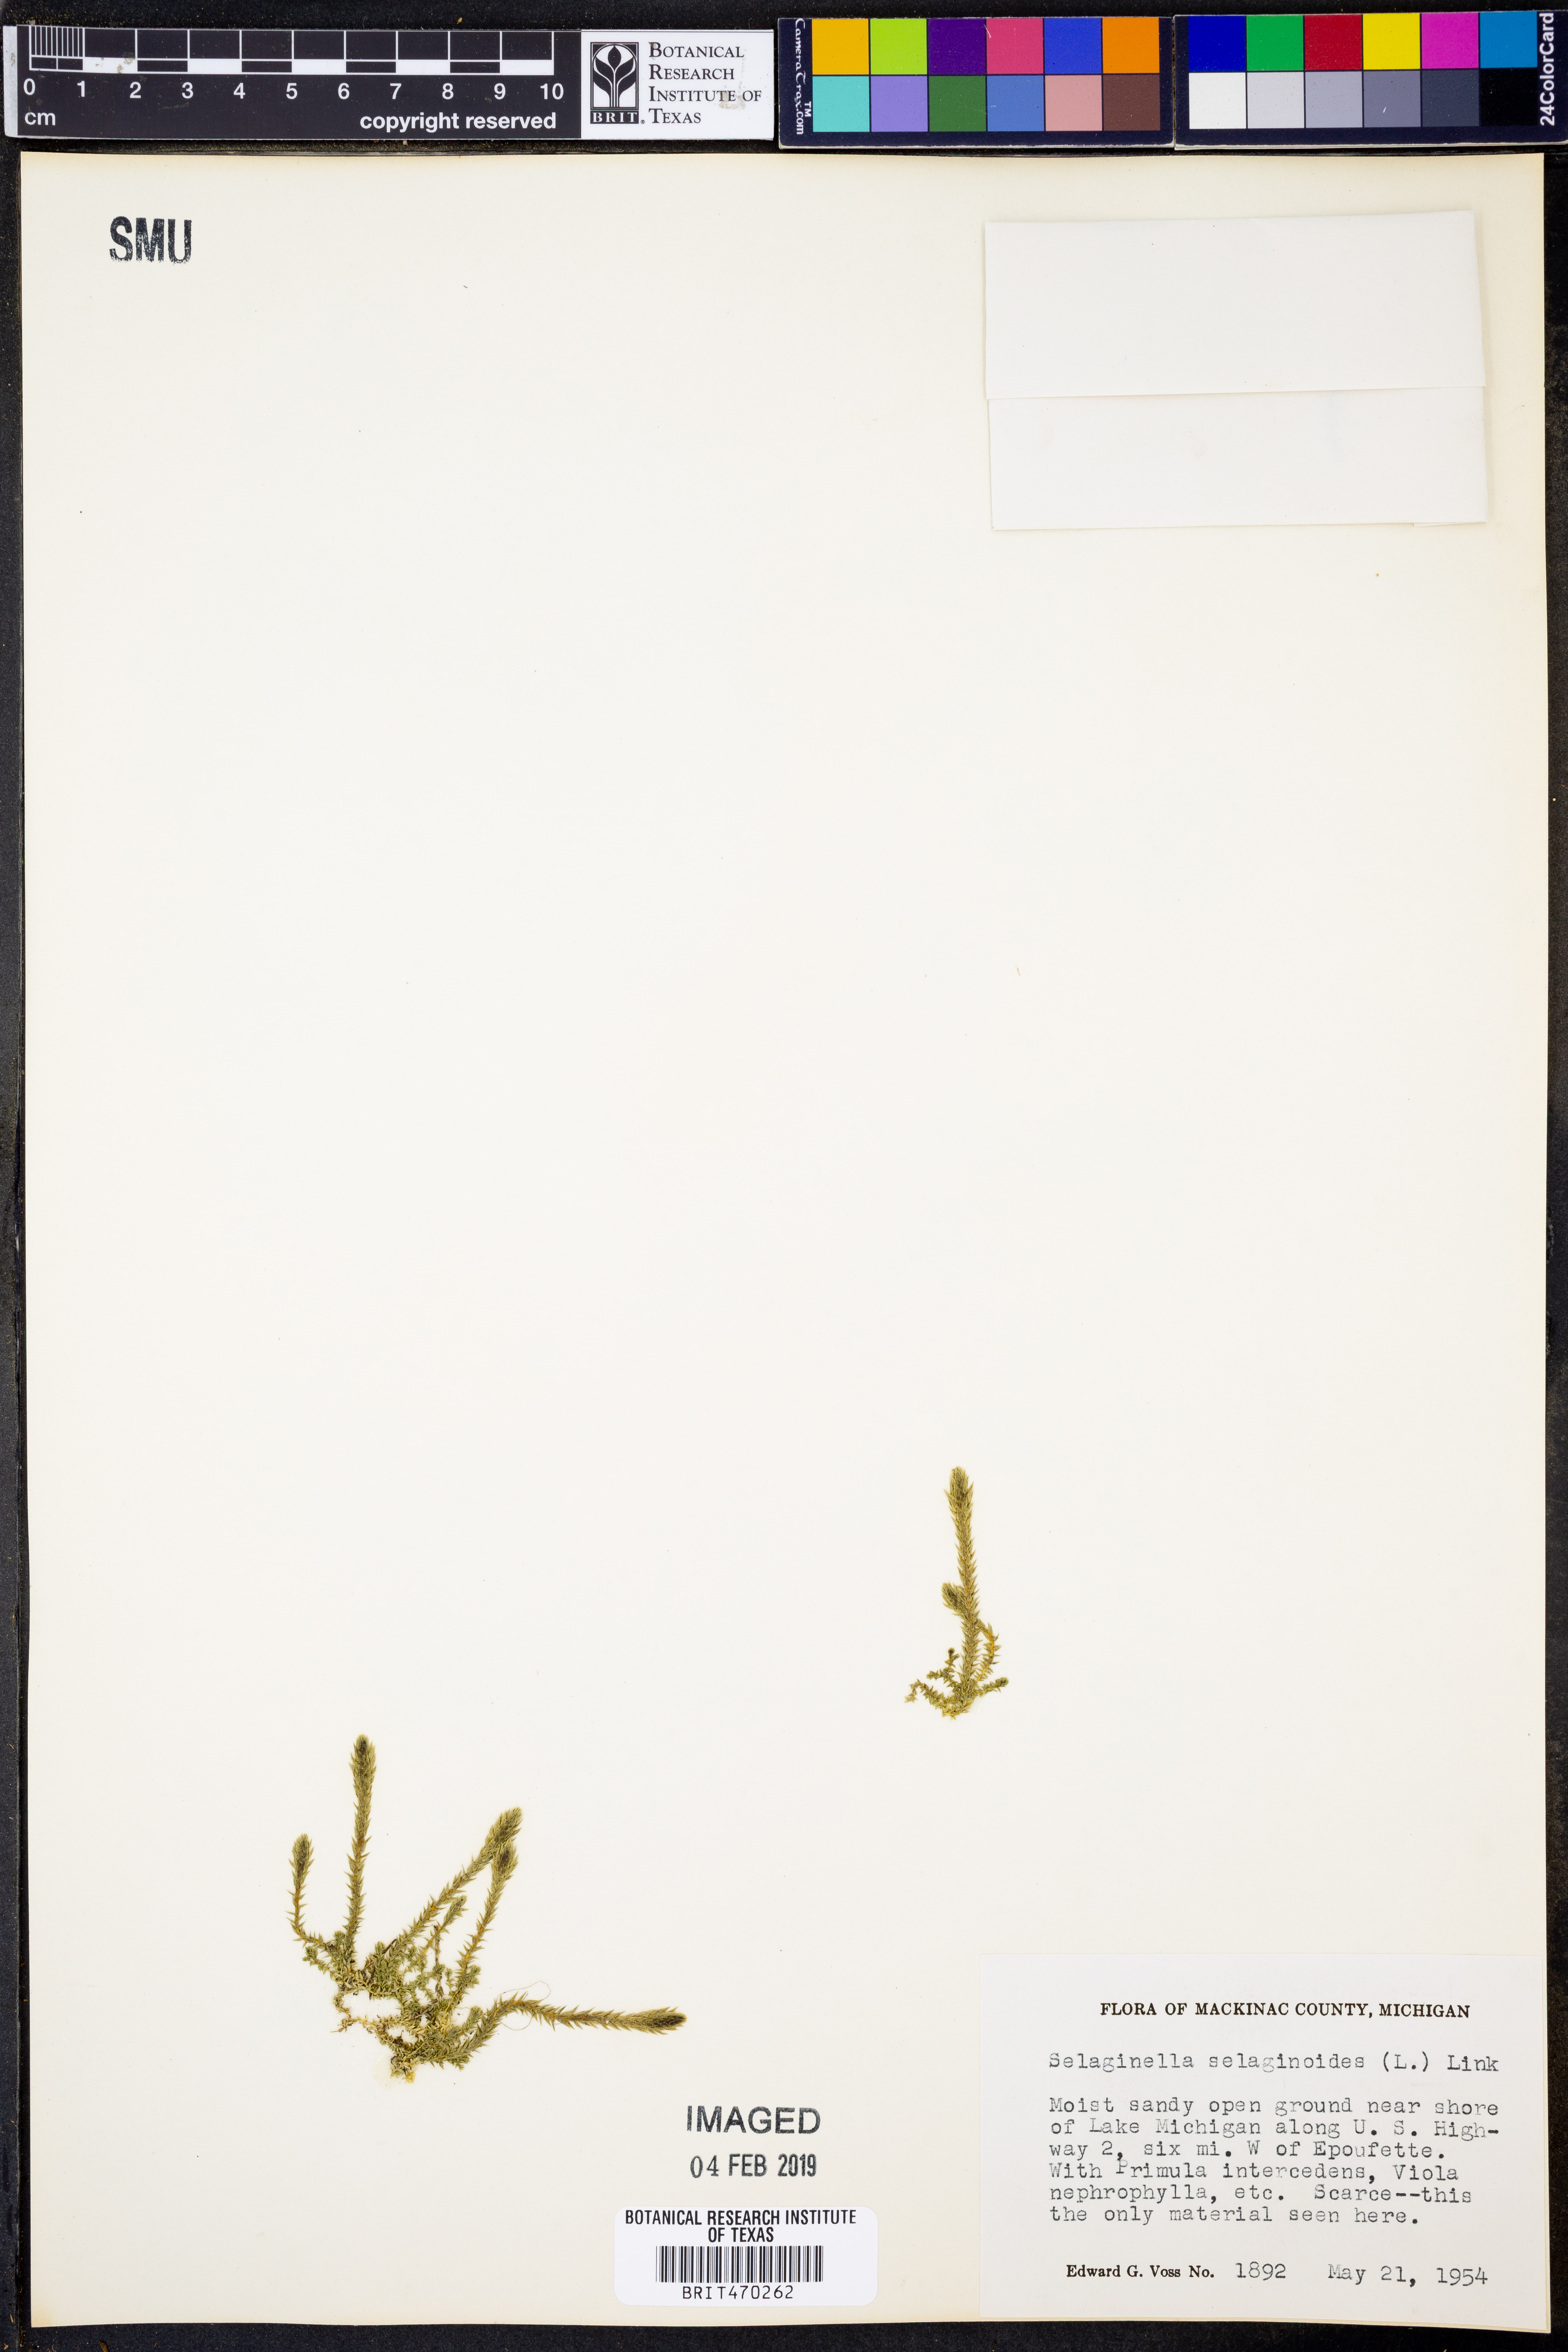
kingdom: Plantae
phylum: Tracheophyta
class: Lycopodiopsida
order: Selaginellales
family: Selaginellaceae
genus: Selaginella
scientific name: Selaginella selaginoides
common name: Prickly mountain-moss
